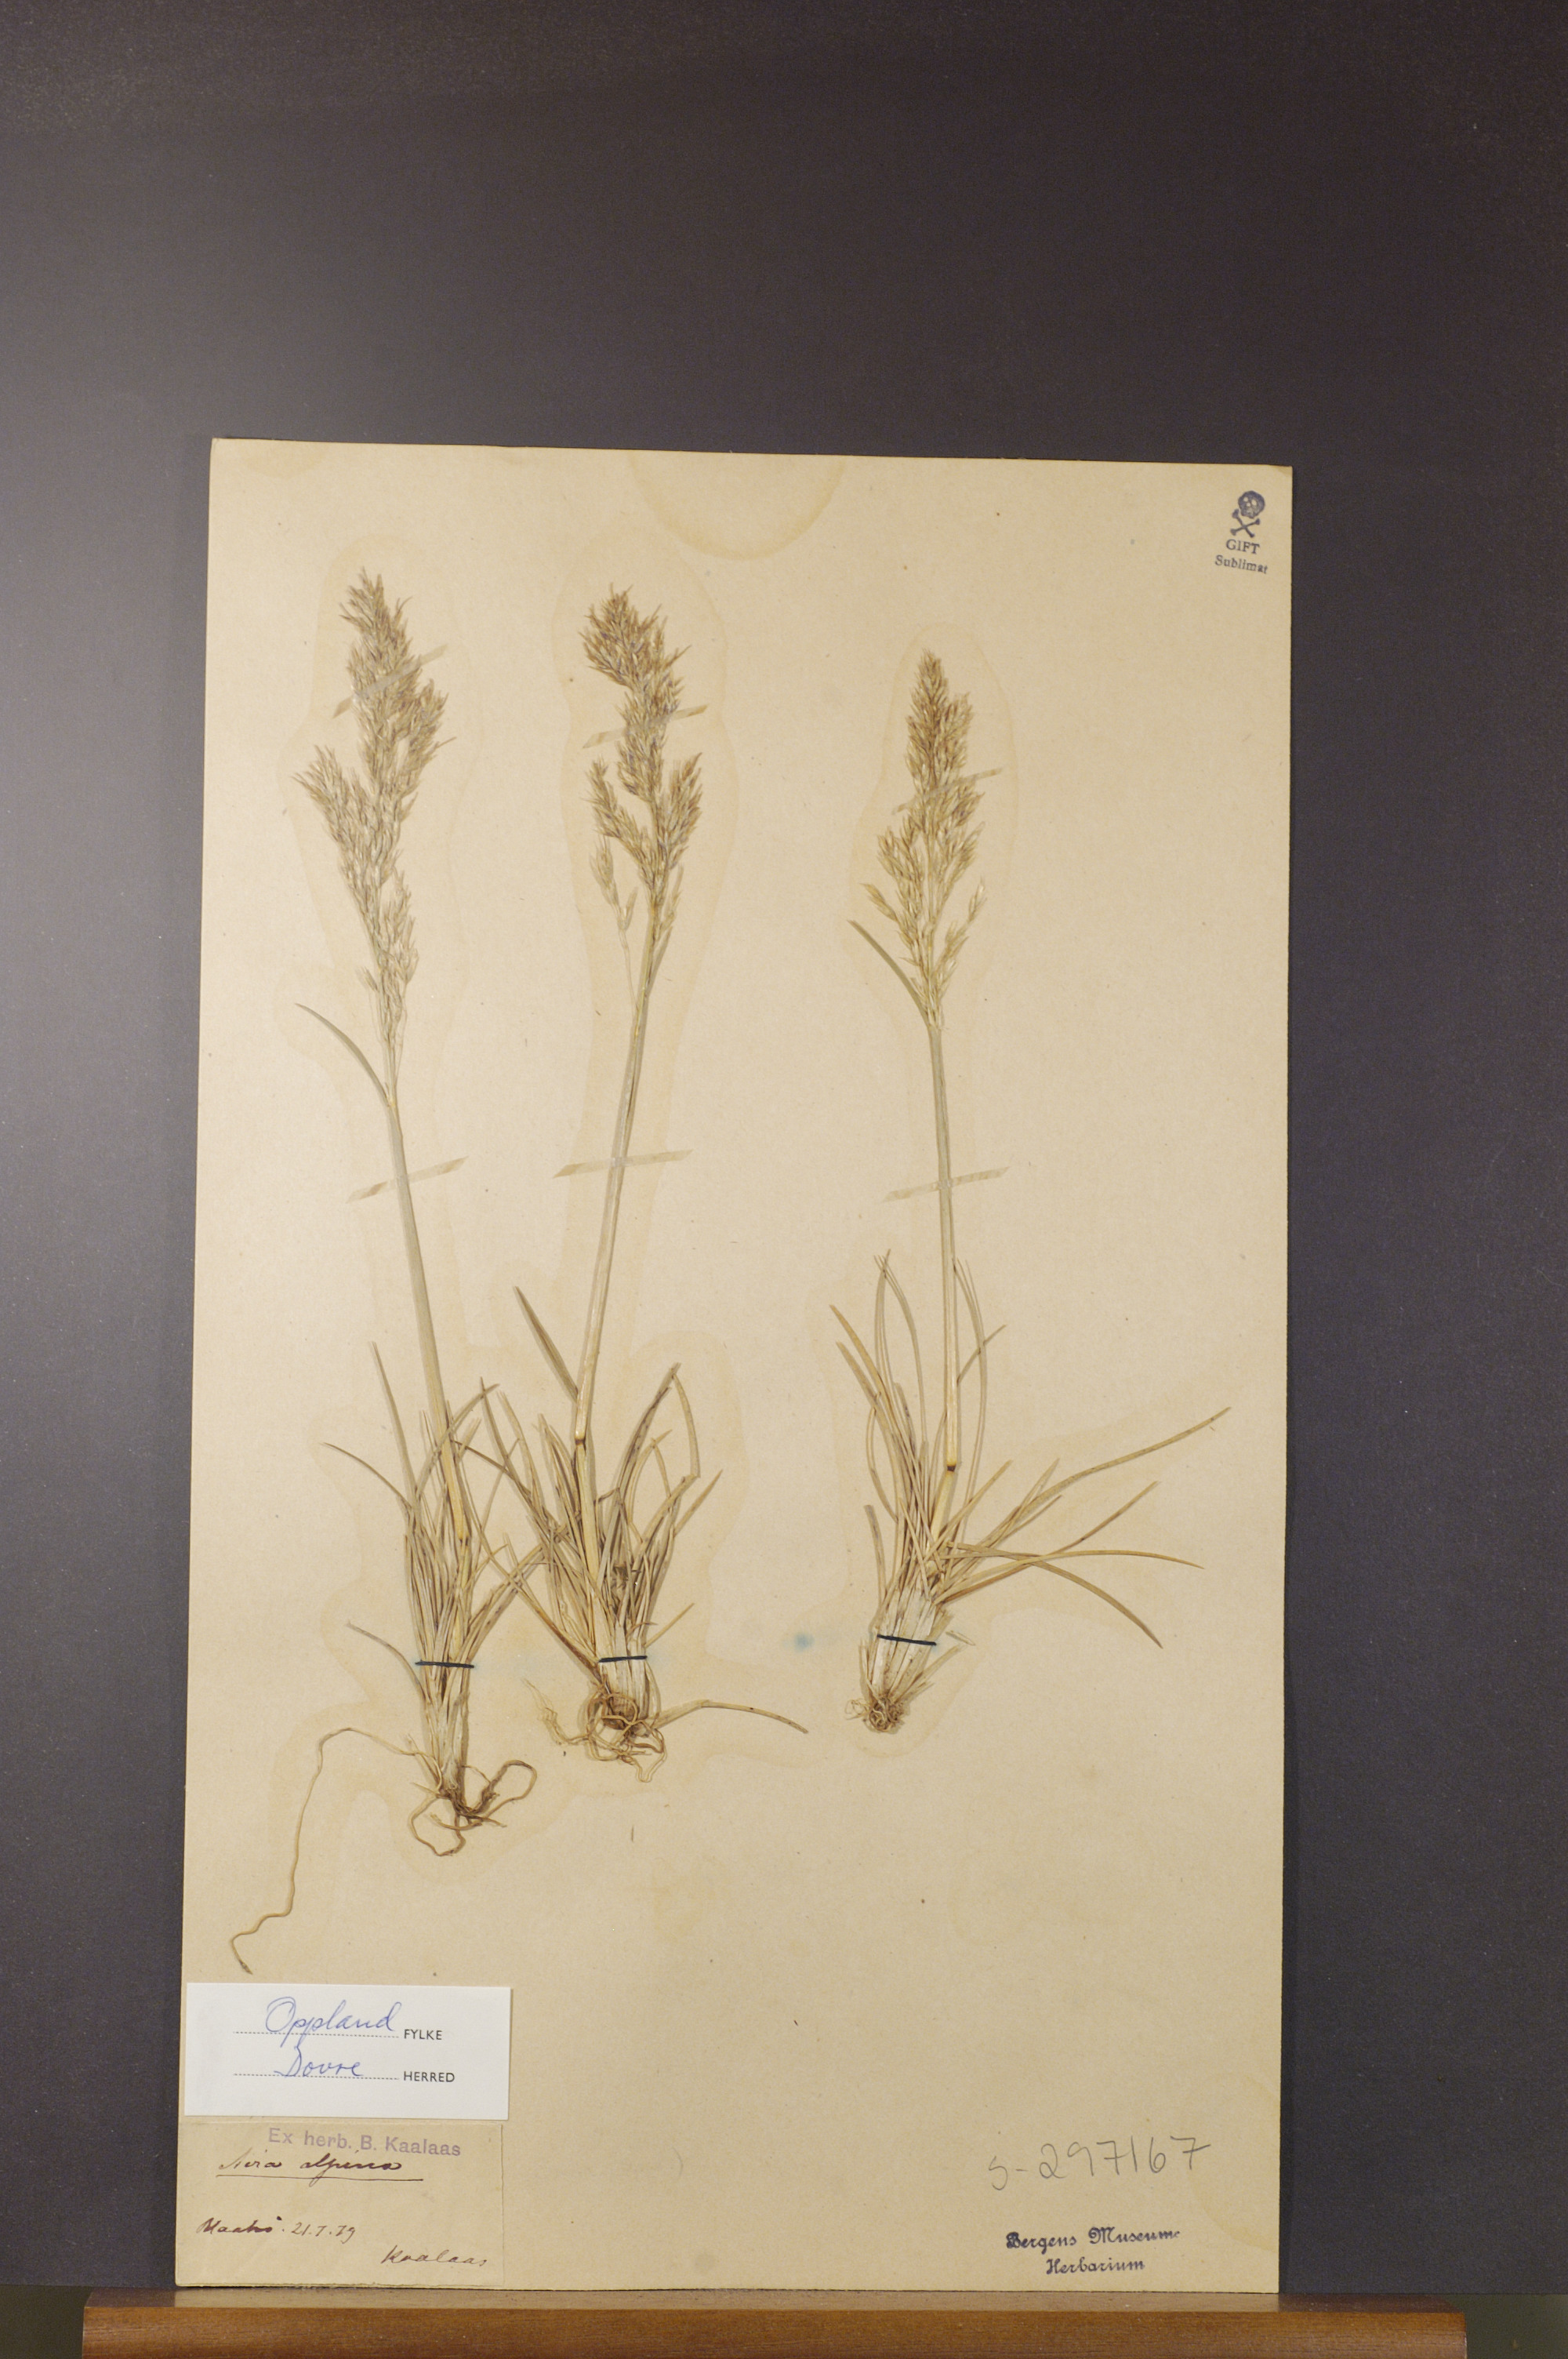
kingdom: Plantae
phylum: Tracheophyta
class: Liliopsida
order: Poales
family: Poaceae
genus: Deschampsia
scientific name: Deschampsia cespitosa
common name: Tufted hair-grass
